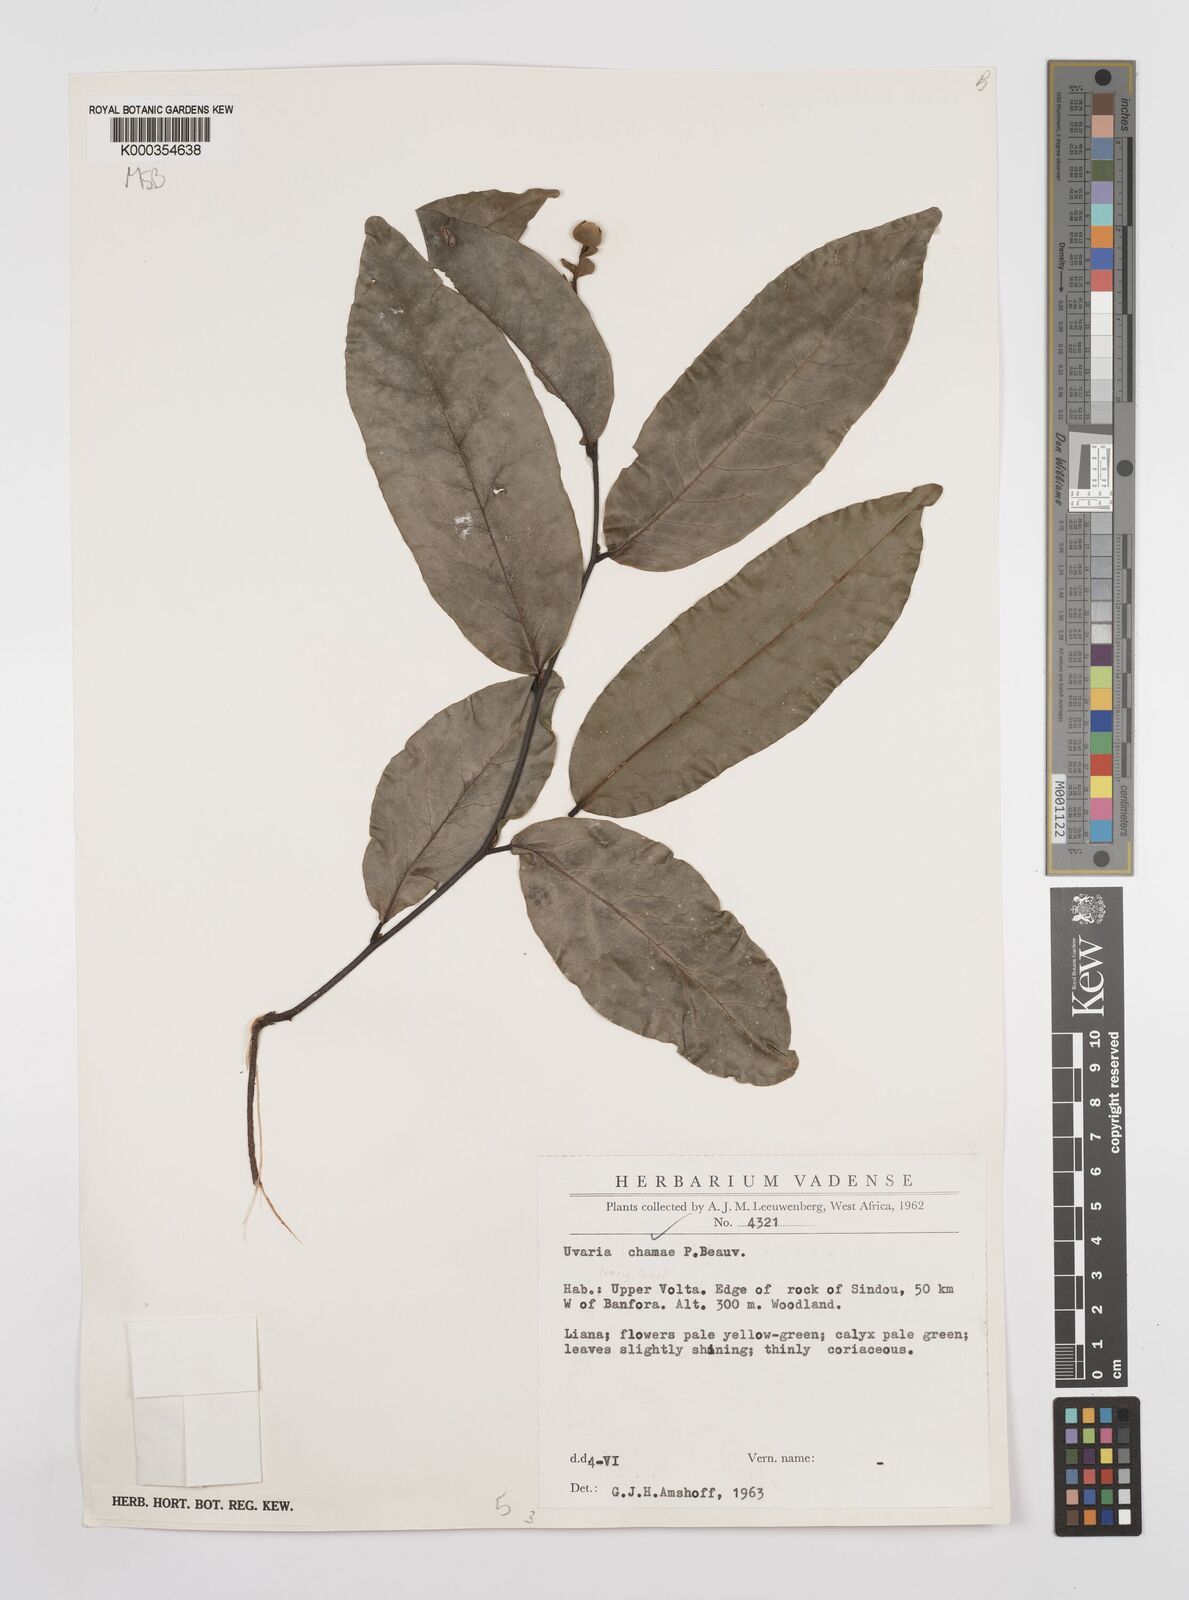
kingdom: Plantae
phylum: Tracheophyta
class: Magnoliopsida
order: Magnoliales
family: Annonaceae
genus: Uvaria
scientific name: Uvaria chamae
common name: Finger-root
